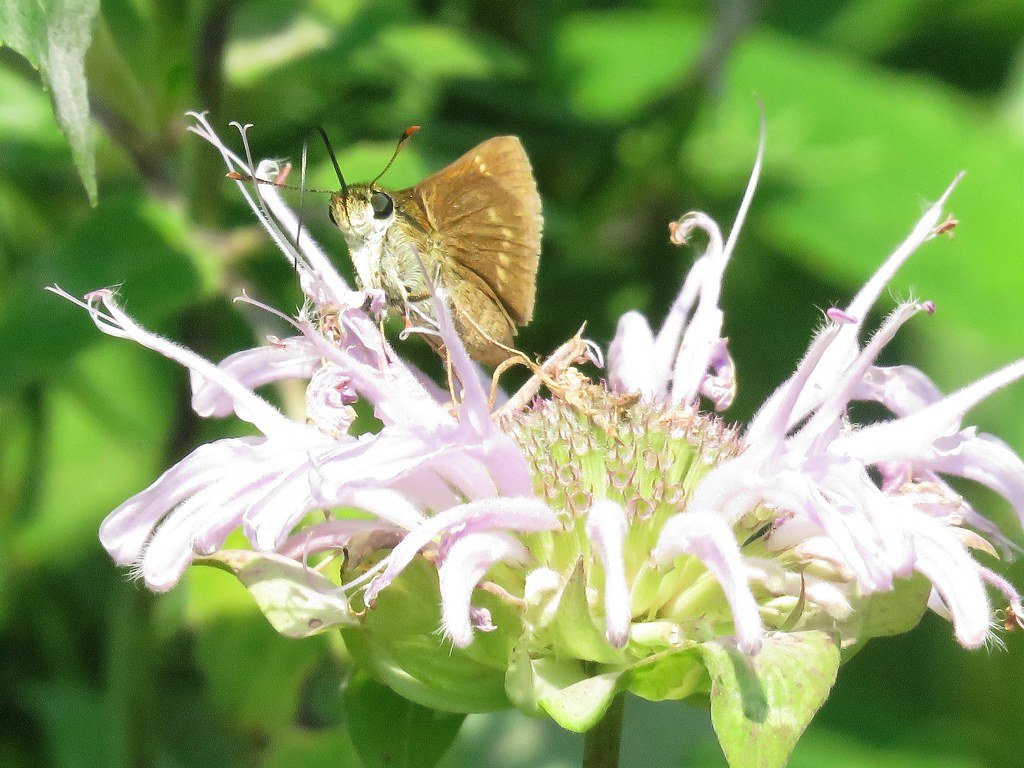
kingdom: Animalia
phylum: Arthropoda
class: Insecta
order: Lepidoptera
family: Hesperiidae
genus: Polites
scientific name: Polites
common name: Crossline Skipper
